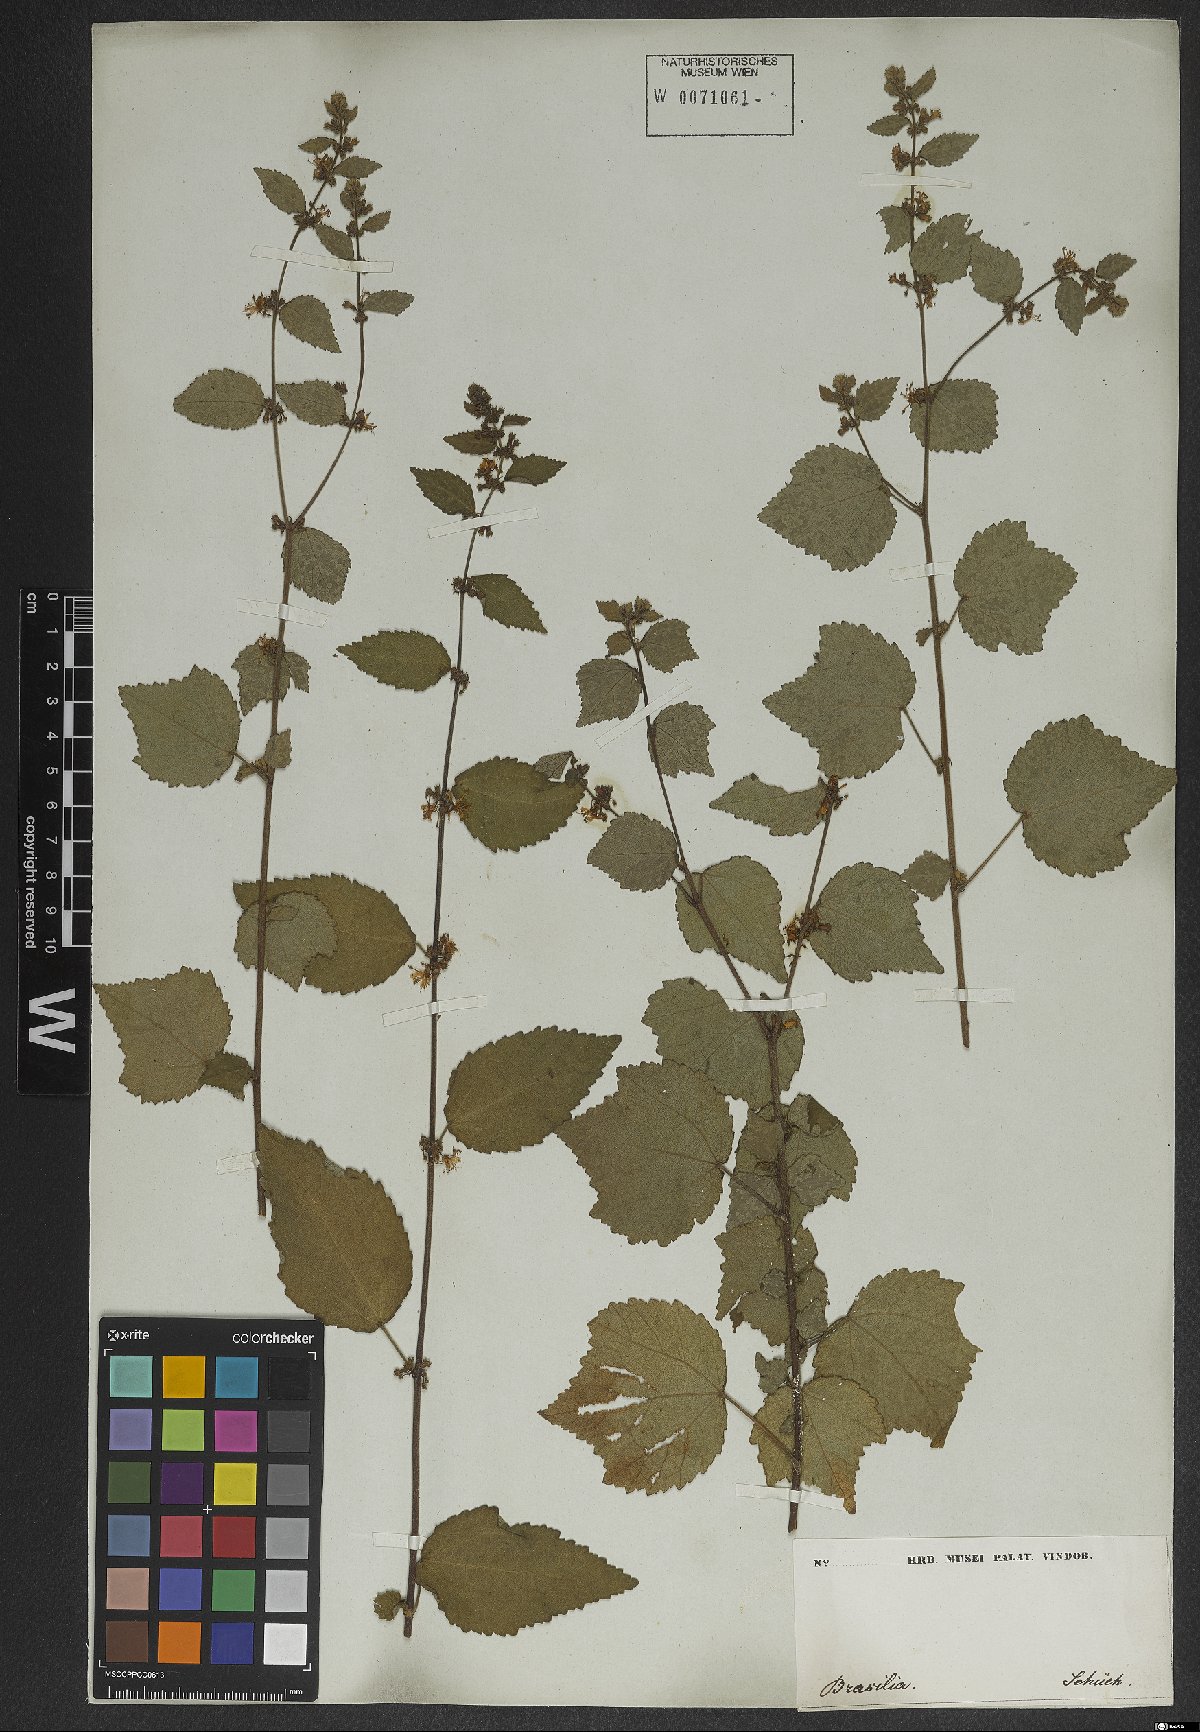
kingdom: Plantae
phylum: Tracheophyta
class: Magnoliopsida
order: Malvales
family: Malvaceae
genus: Triumfetta
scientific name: Triumfetta rhomboidea
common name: Diamond burbark
